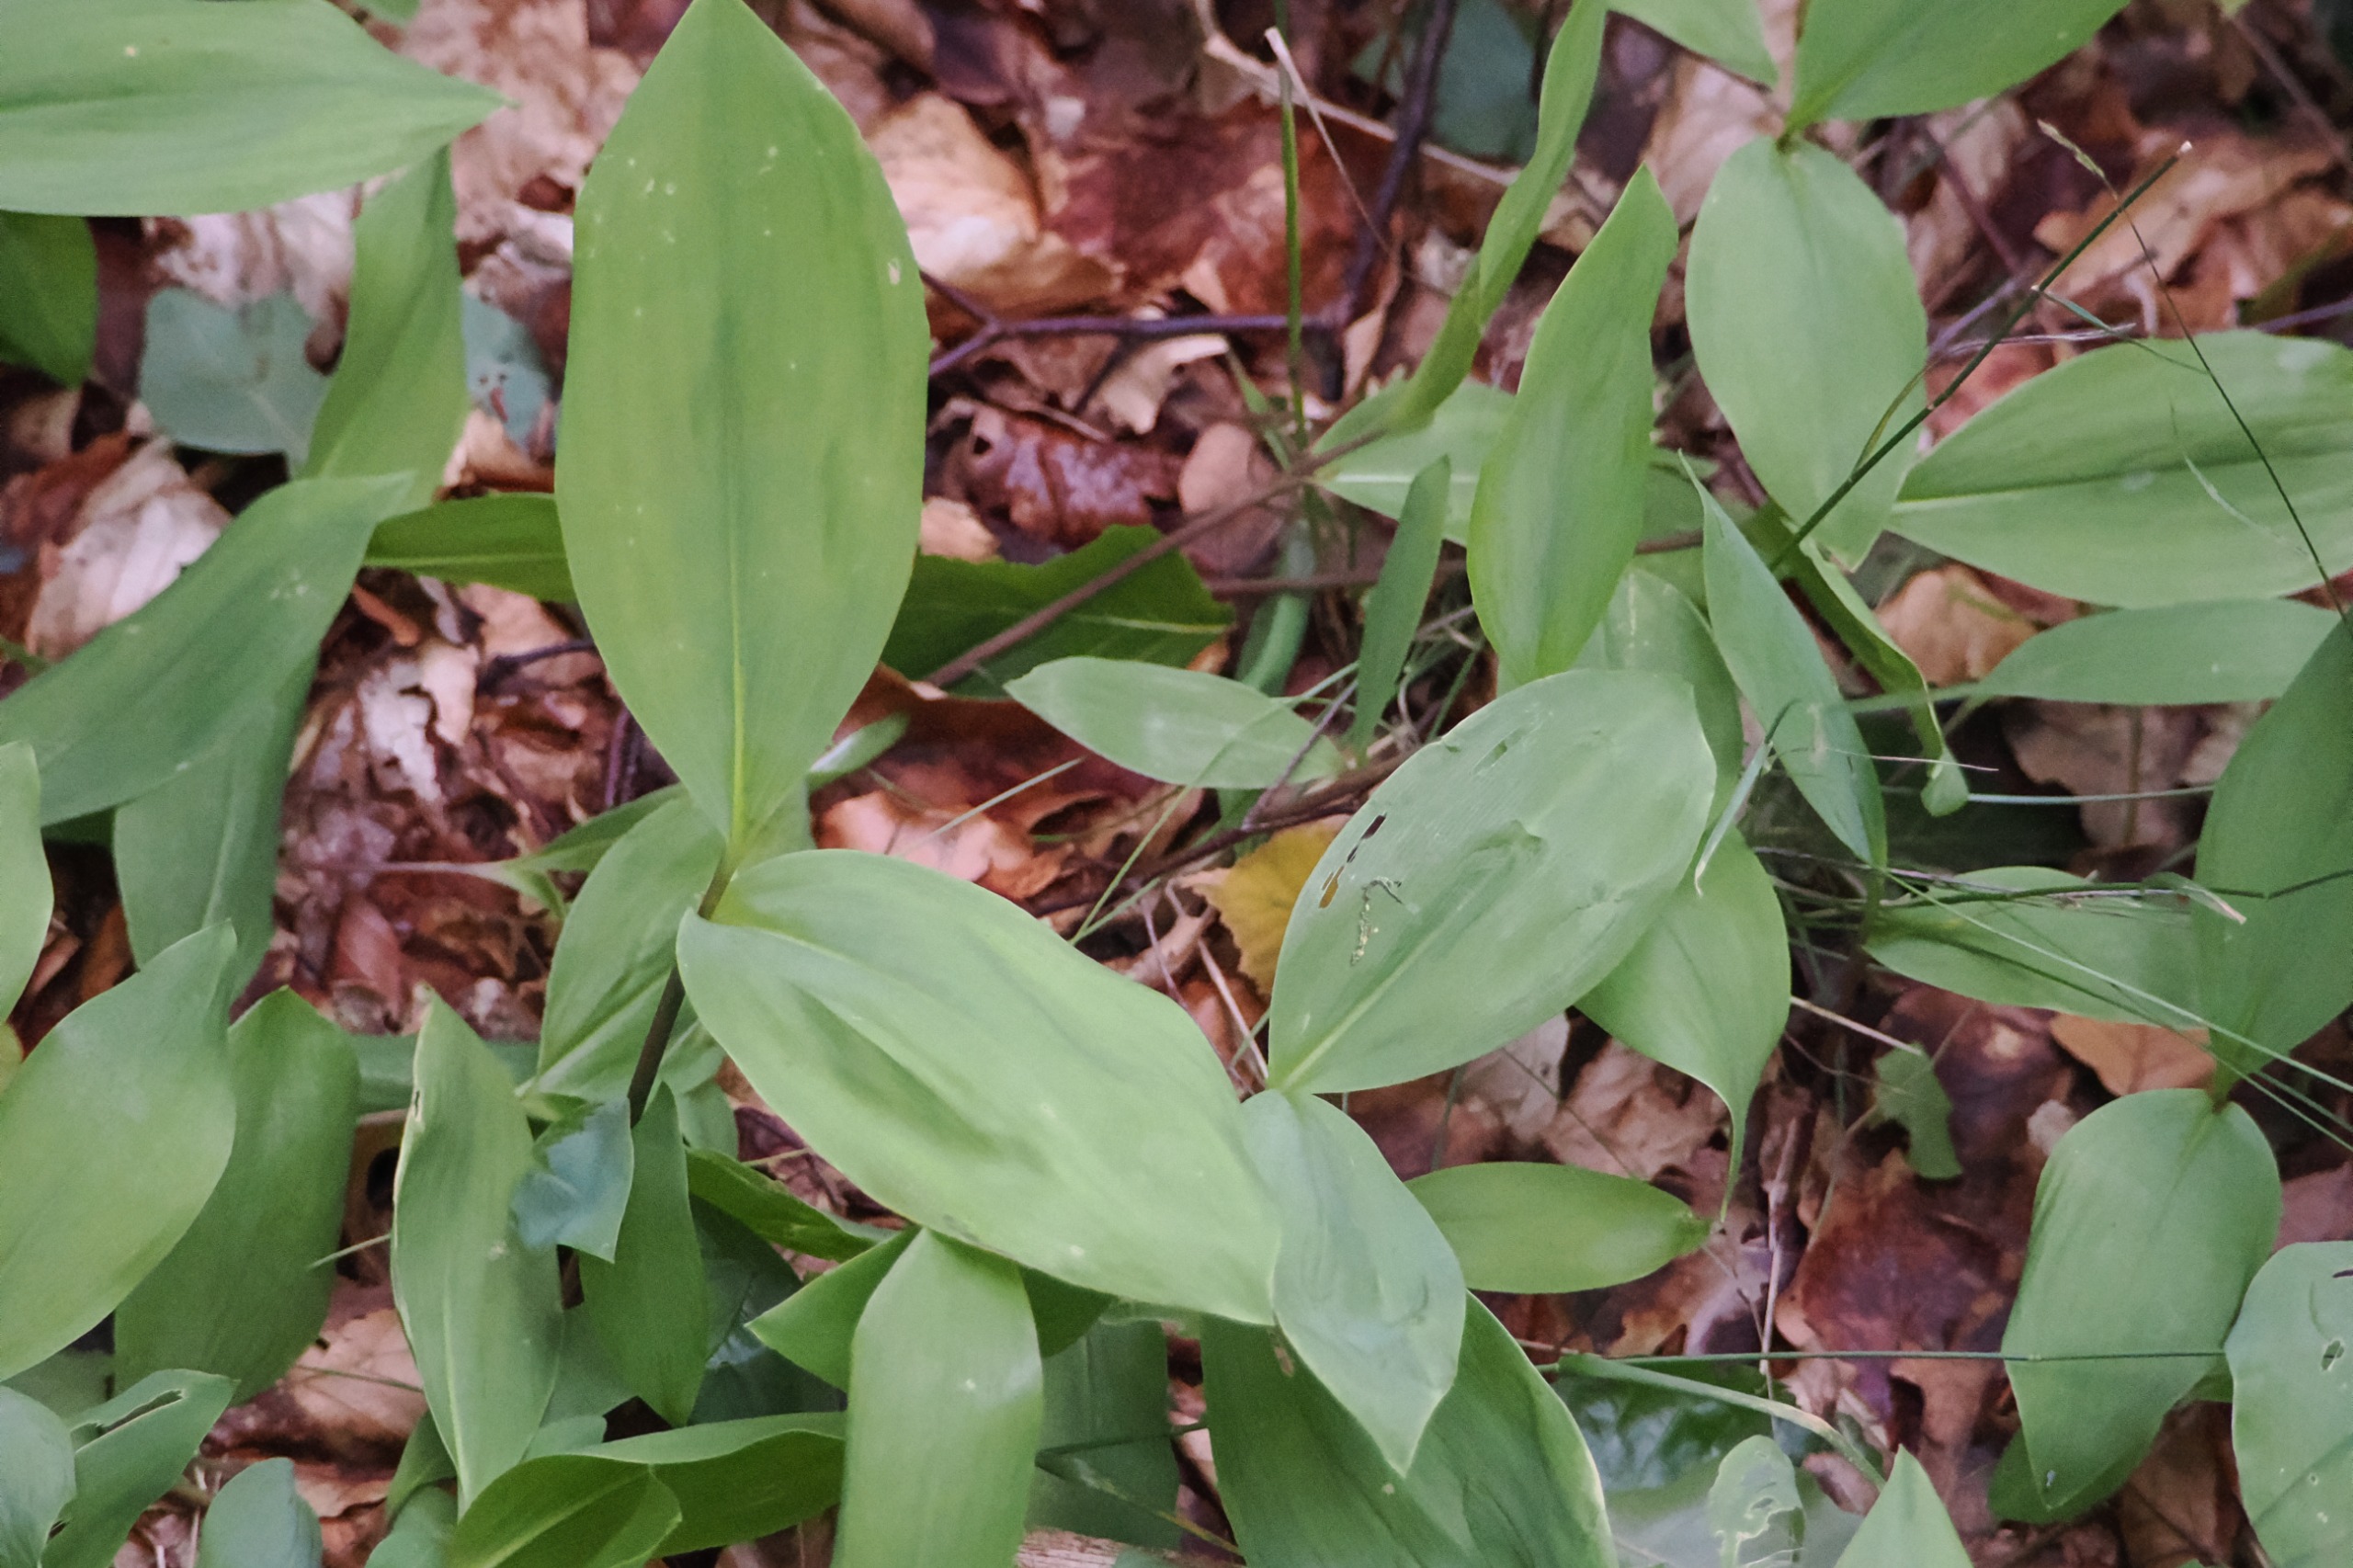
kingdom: Plantae
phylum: Tracheophyta
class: Liliopsida
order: Asparagales
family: Asparagaceae
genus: Convallaria
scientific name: Convallaria majalis
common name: Liljekonval
